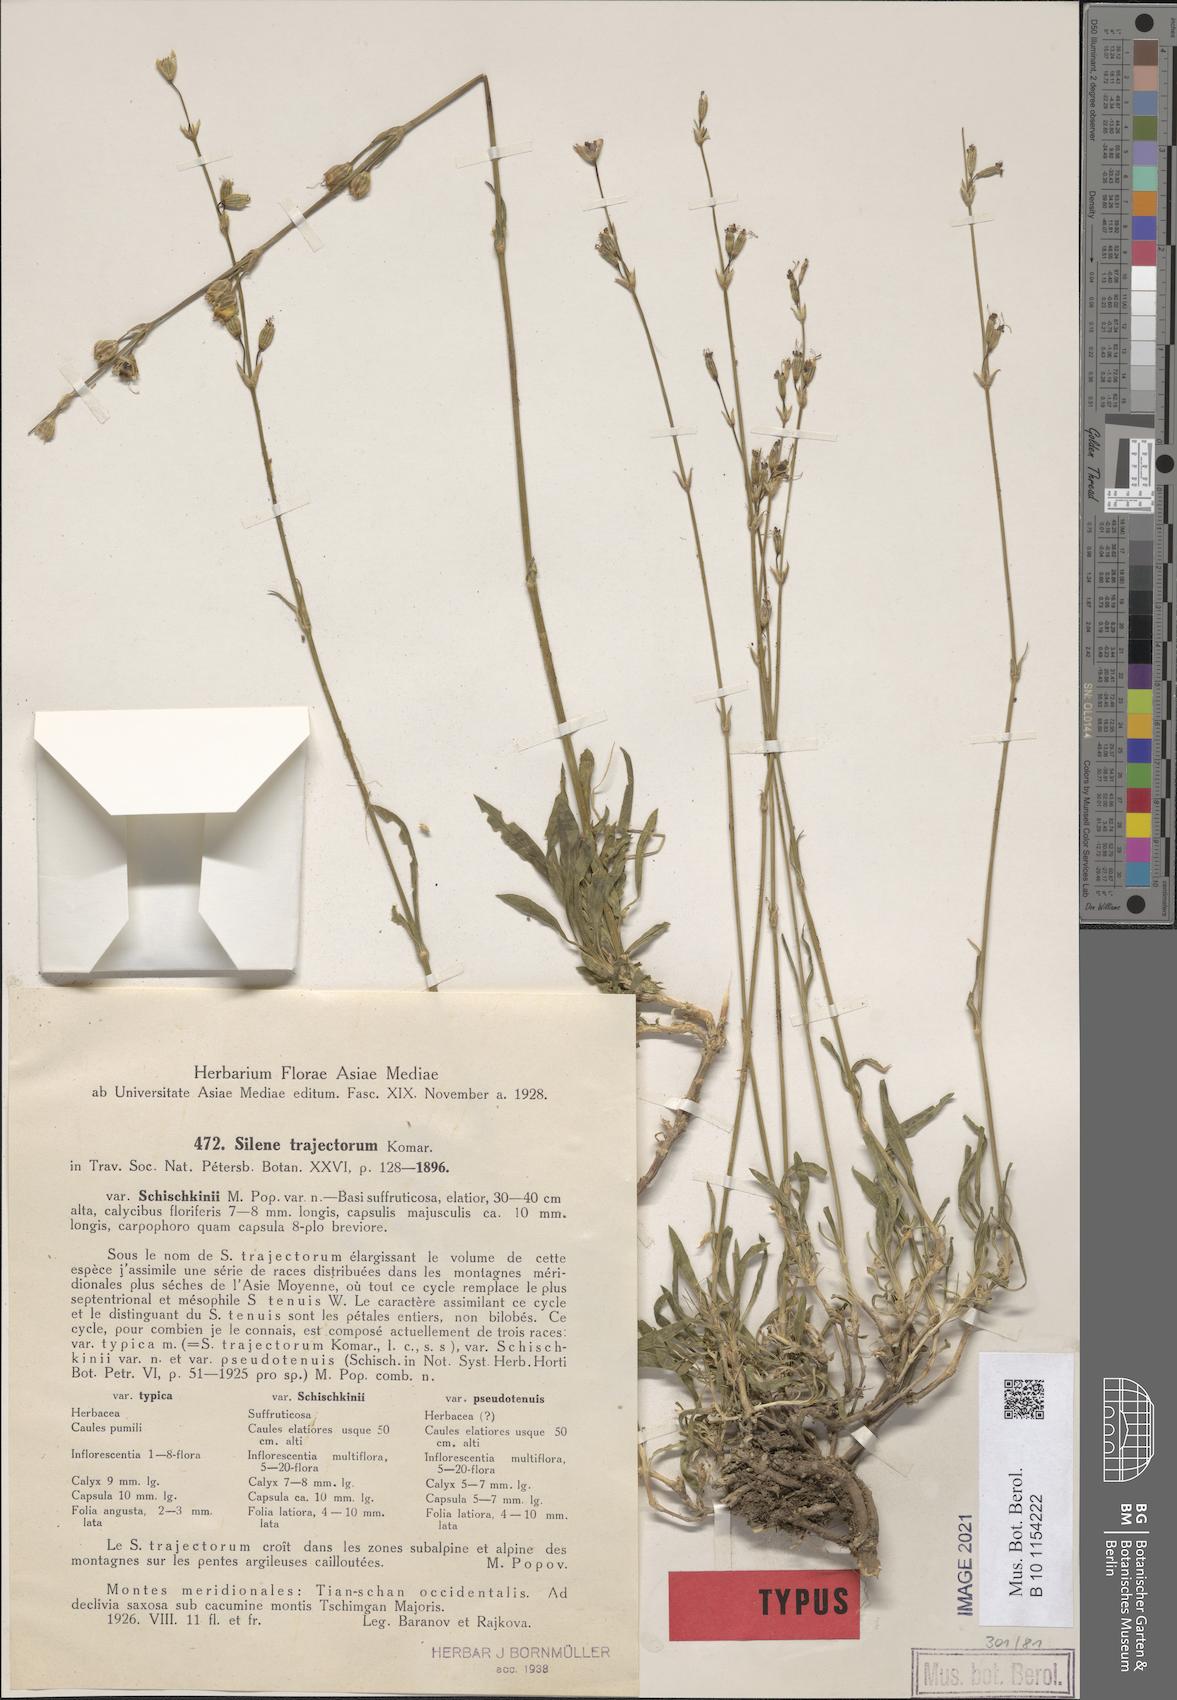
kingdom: Plantae
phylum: Tracheophyta
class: Magnoliopsida
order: Caryophyllales
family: Caryophyllaceae
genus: Silene
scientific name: Silene schischkinii
